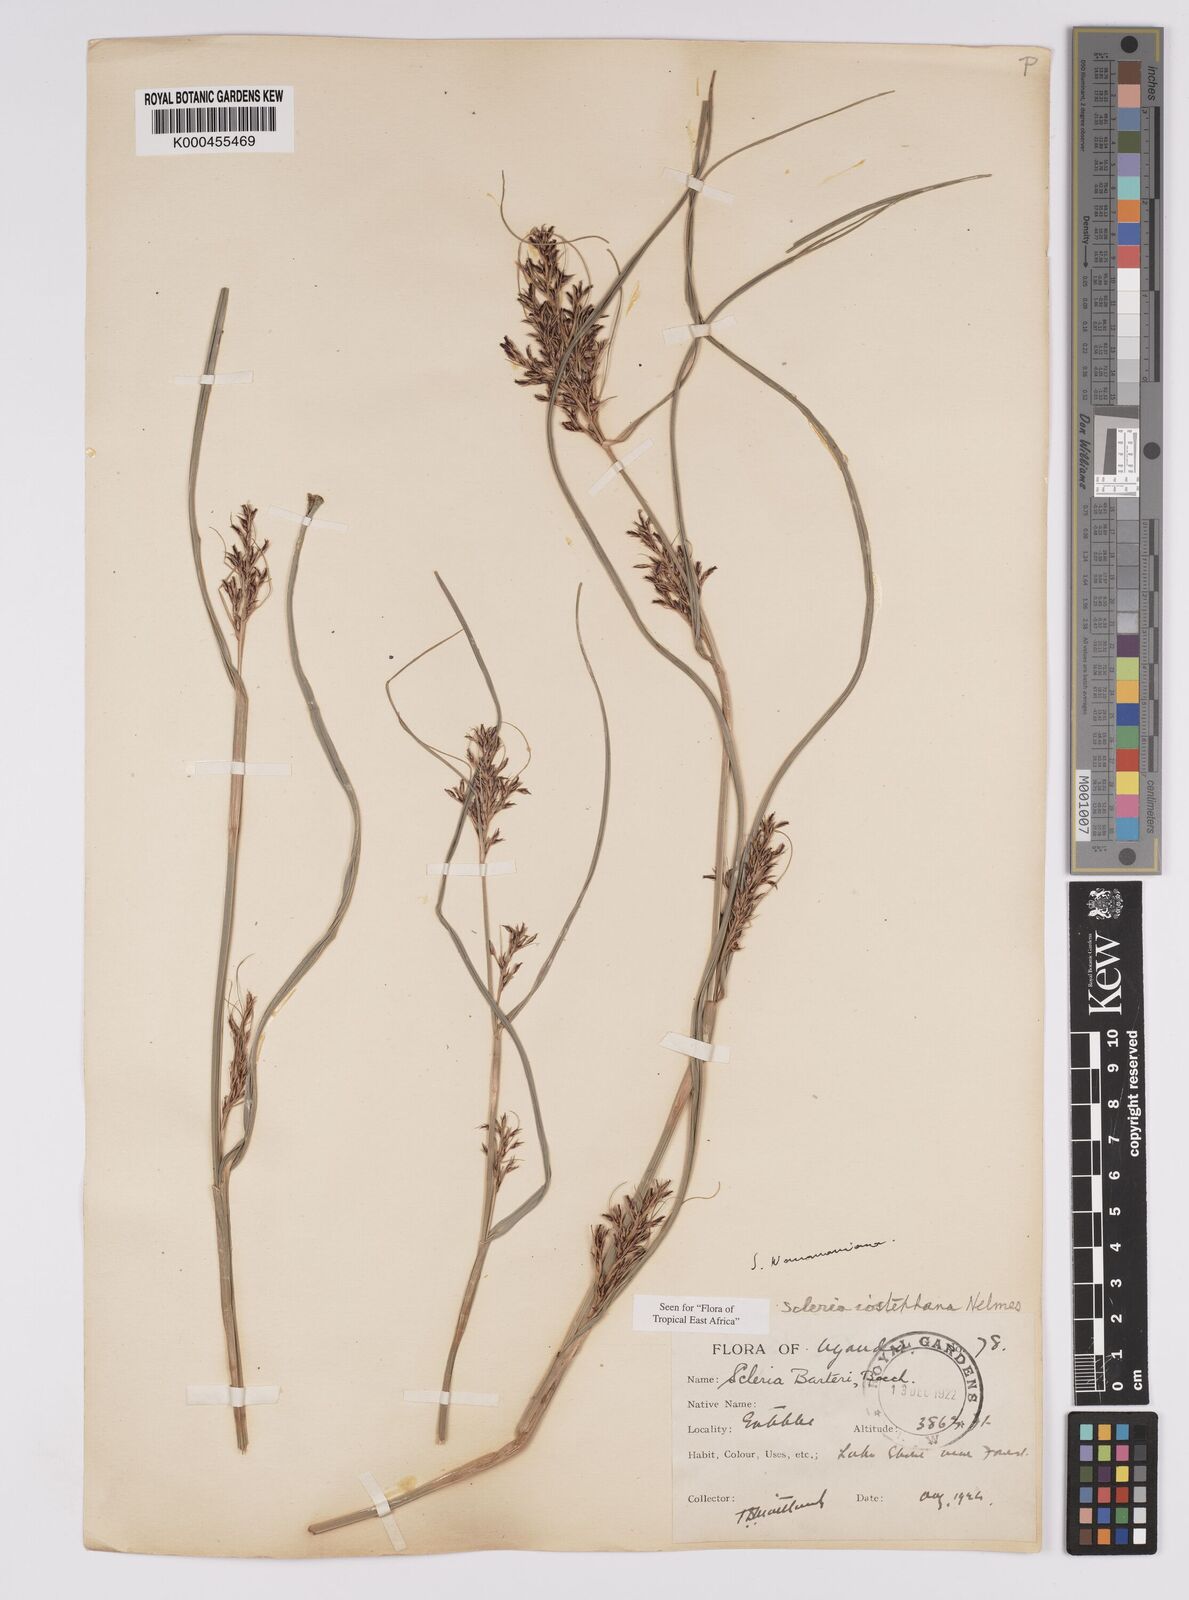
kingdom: Plantae
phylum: Tracheophyta
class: Liliopsida
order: Poales
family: Cyperaceae
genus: Scleria
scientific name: Scleria iostephana
